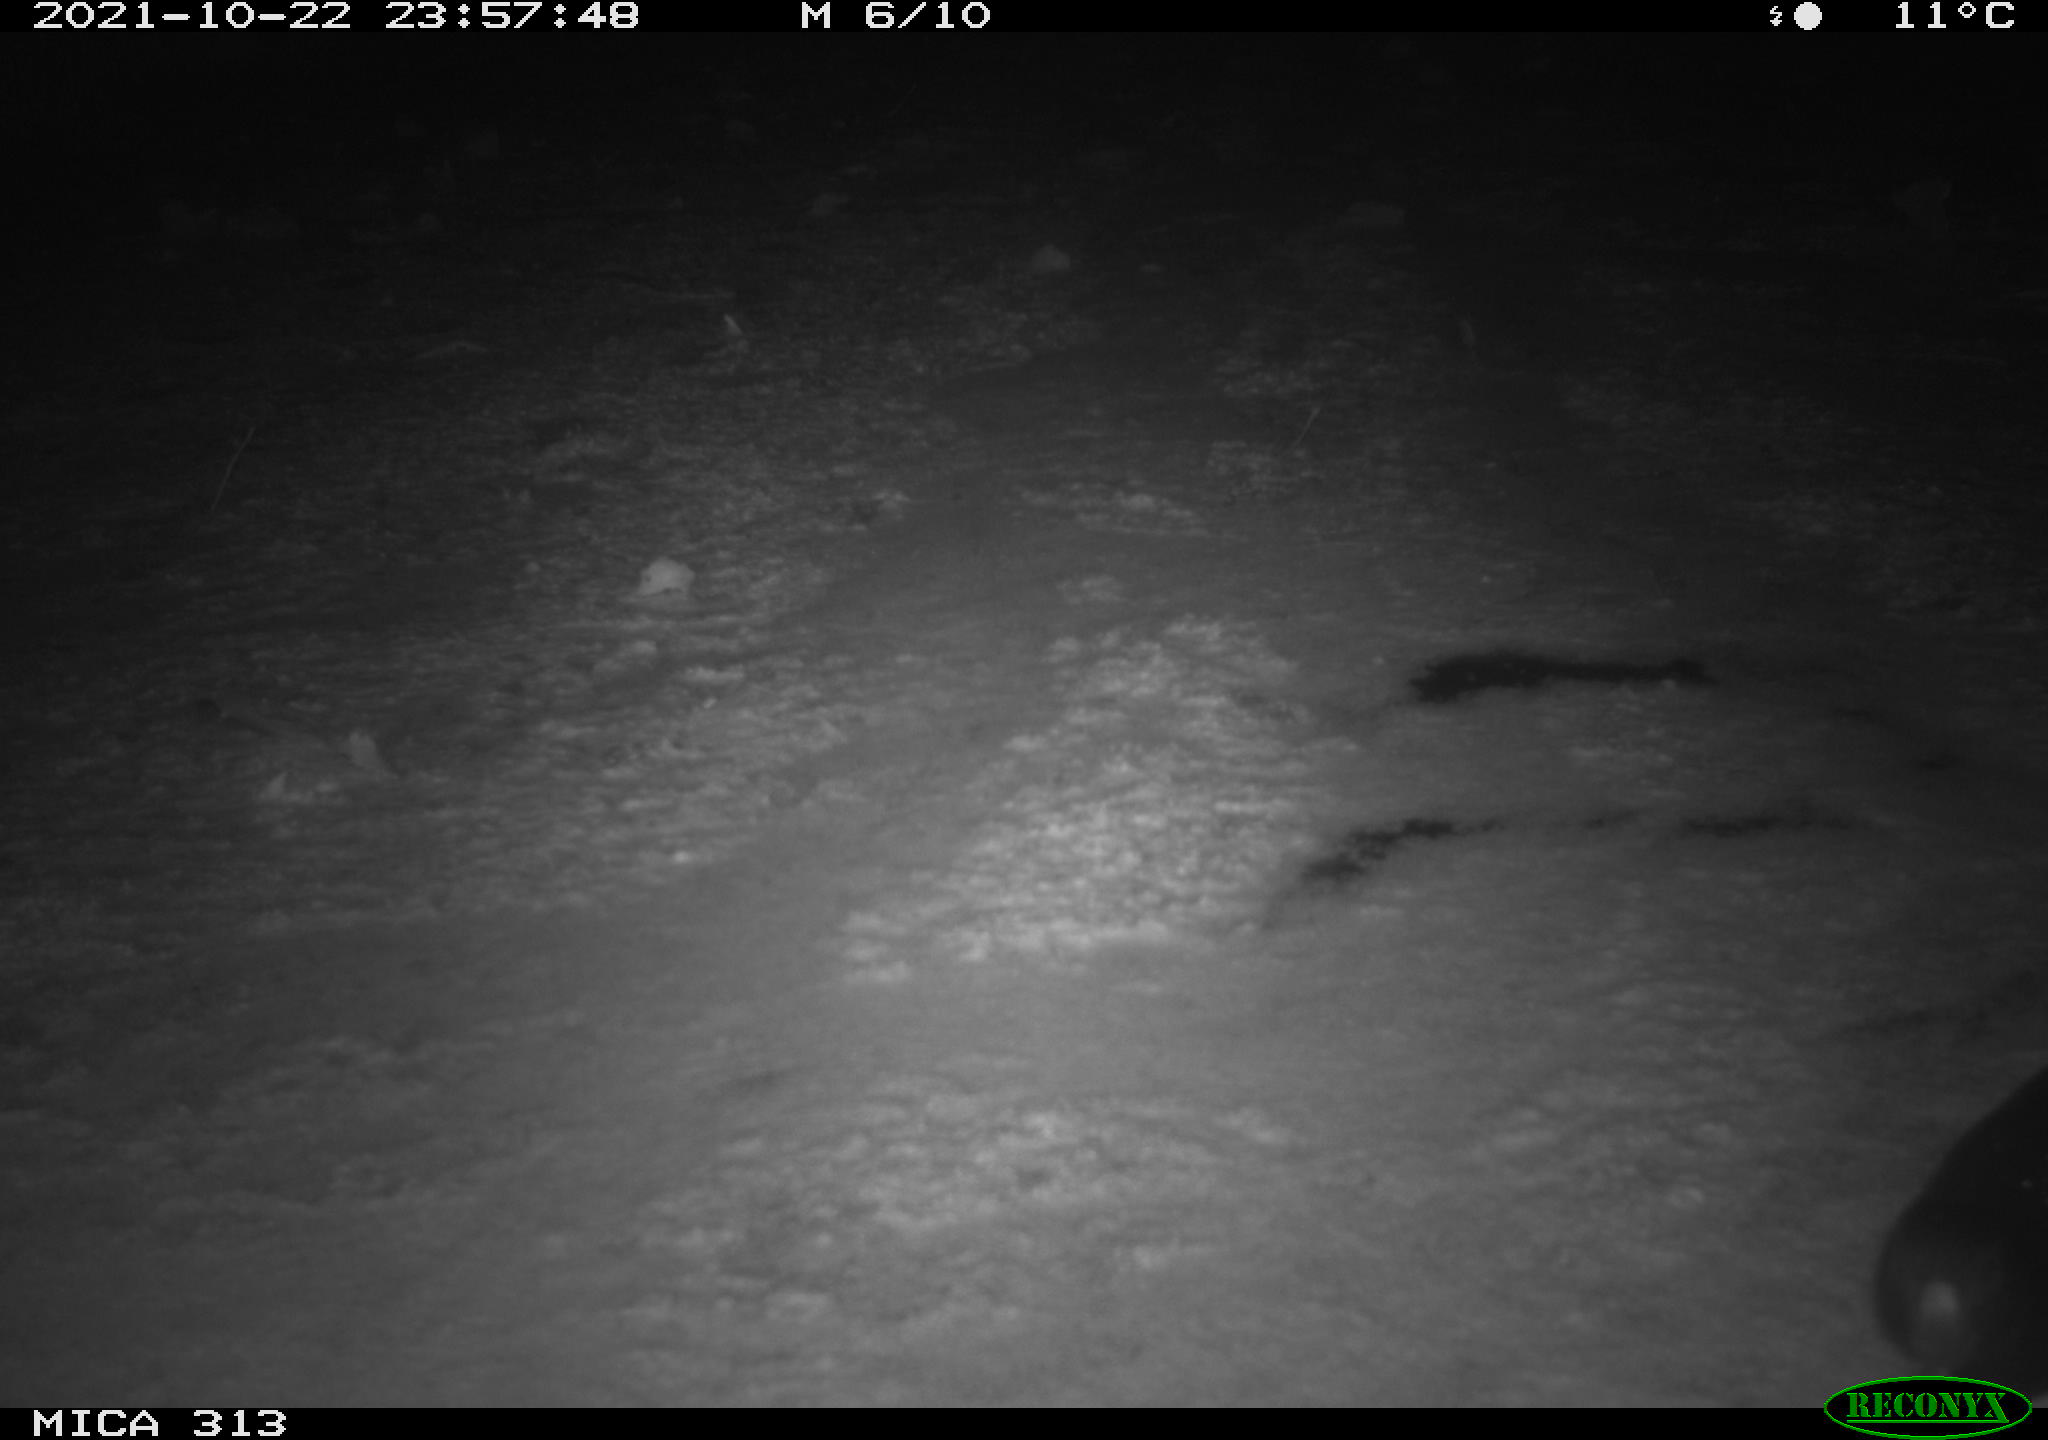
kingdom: Animalia
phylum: Chordata
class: Aves
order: Gruiformes
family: Rallidae
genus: Gallinula
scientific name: Gallinula chloropus
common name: Common moorhen
